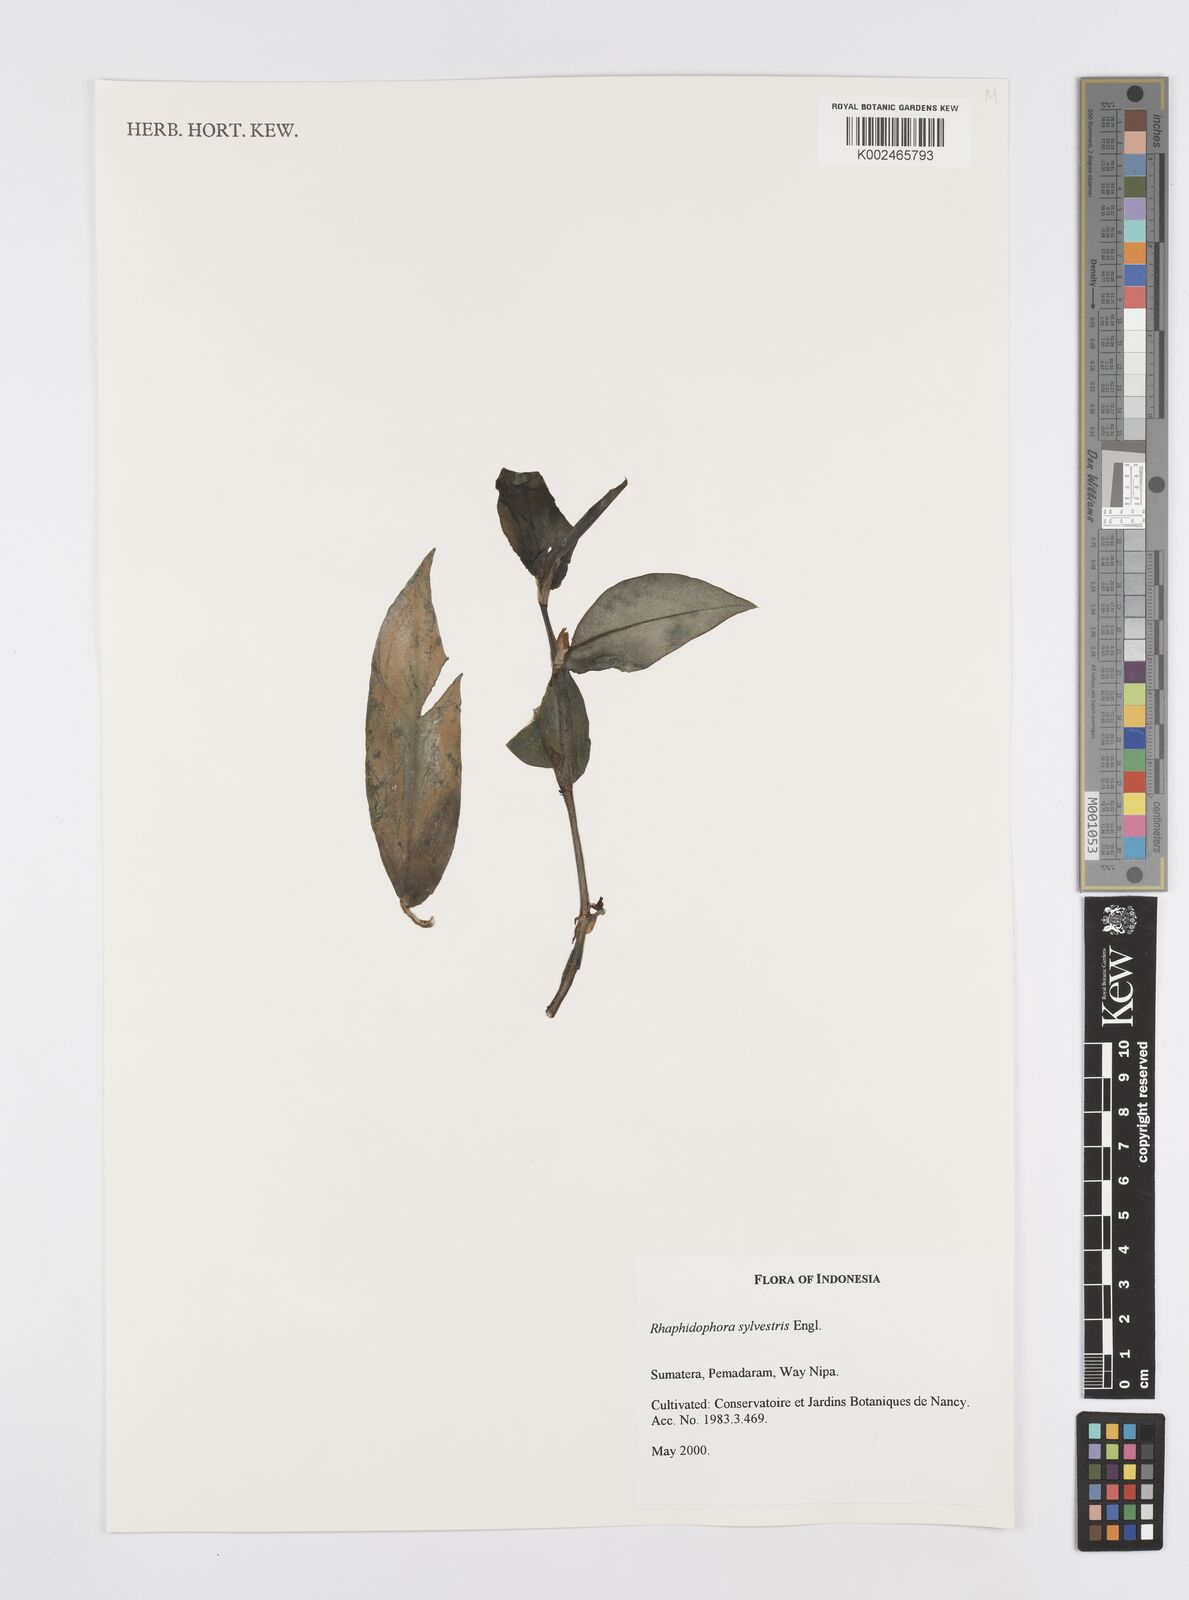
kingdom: Plantae
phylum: Tracheophyta
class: Liliopsida
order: Alismatales
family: Araceae
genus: Rhaphidophora
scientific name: Rhaphidophora sylvestris
